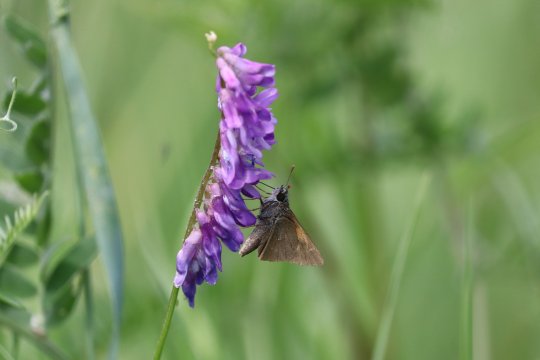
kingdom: Animalia
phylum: Arthropoda
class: Insecta
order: Lepidoptera
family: Hesperiidae
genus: Polites
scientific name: Polites themistocles
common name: Tawny-edged Skipper
